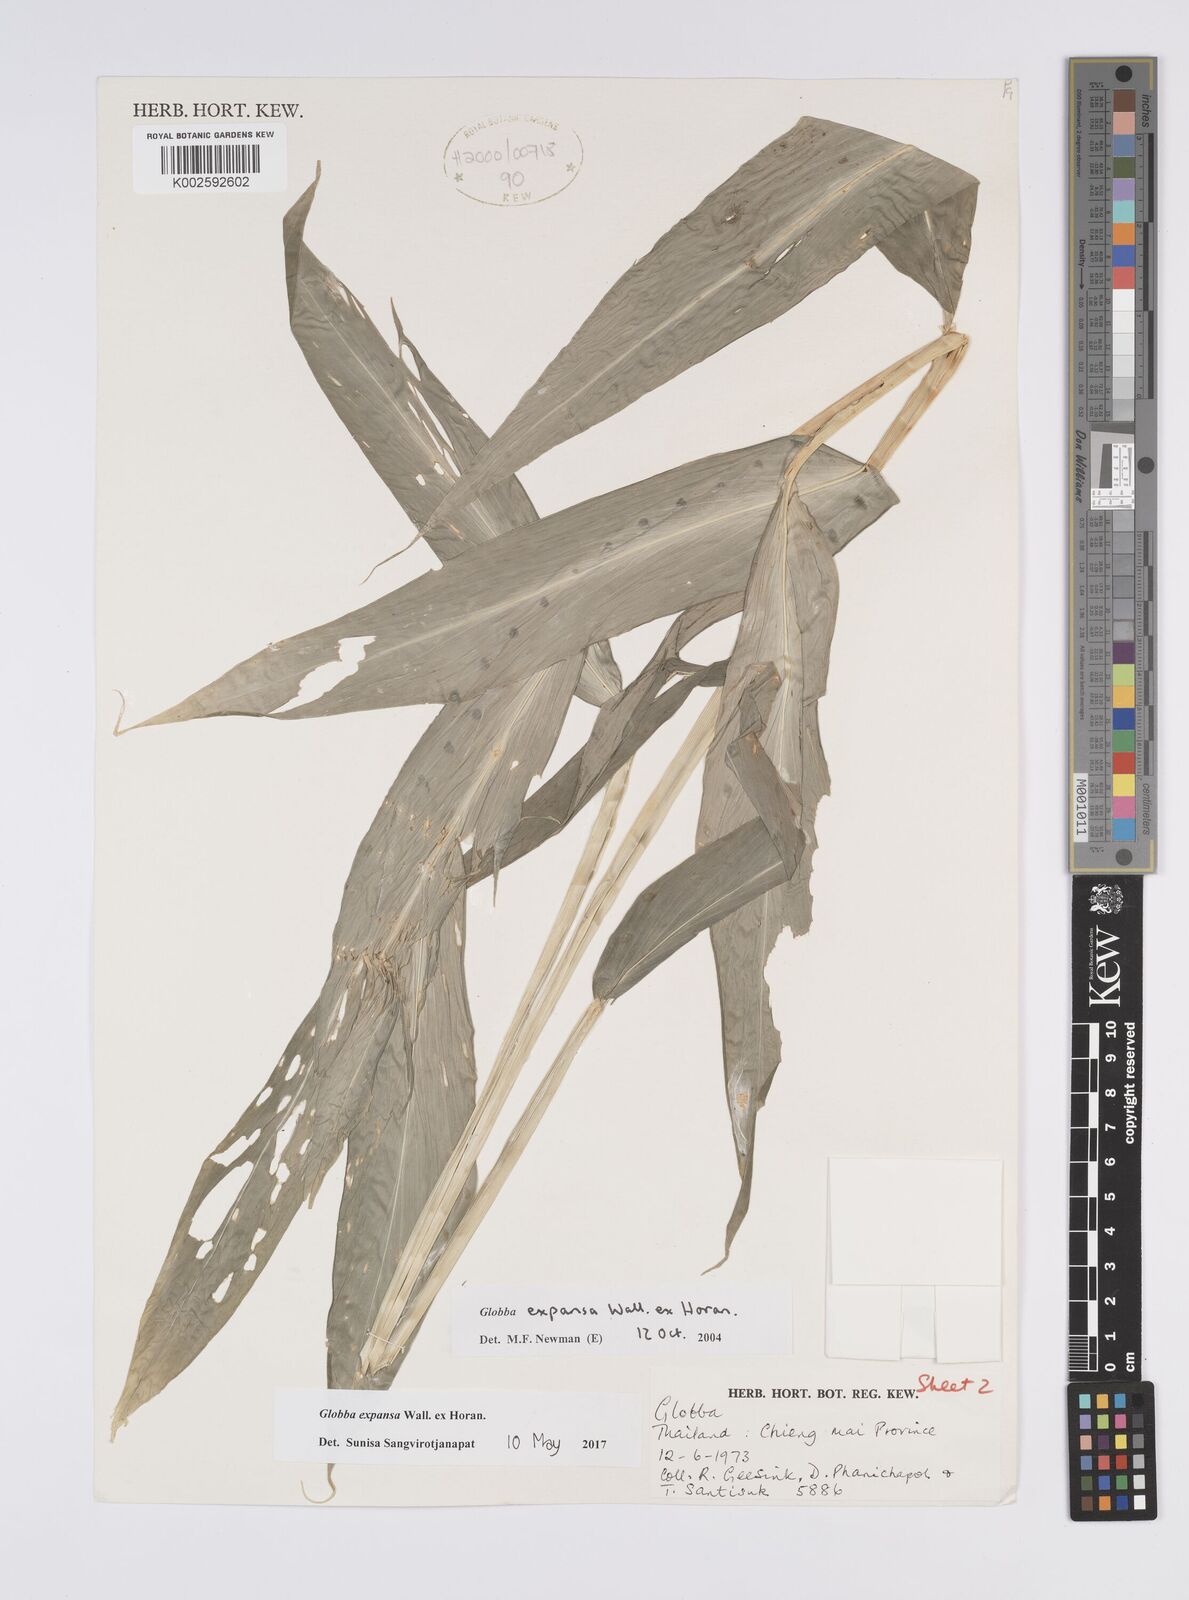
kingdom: Plantae
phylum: Tracheophyta
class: Liliopsida
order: Zingiberales
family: Zingiberaceae
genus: Globba
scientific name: Globba expansa
